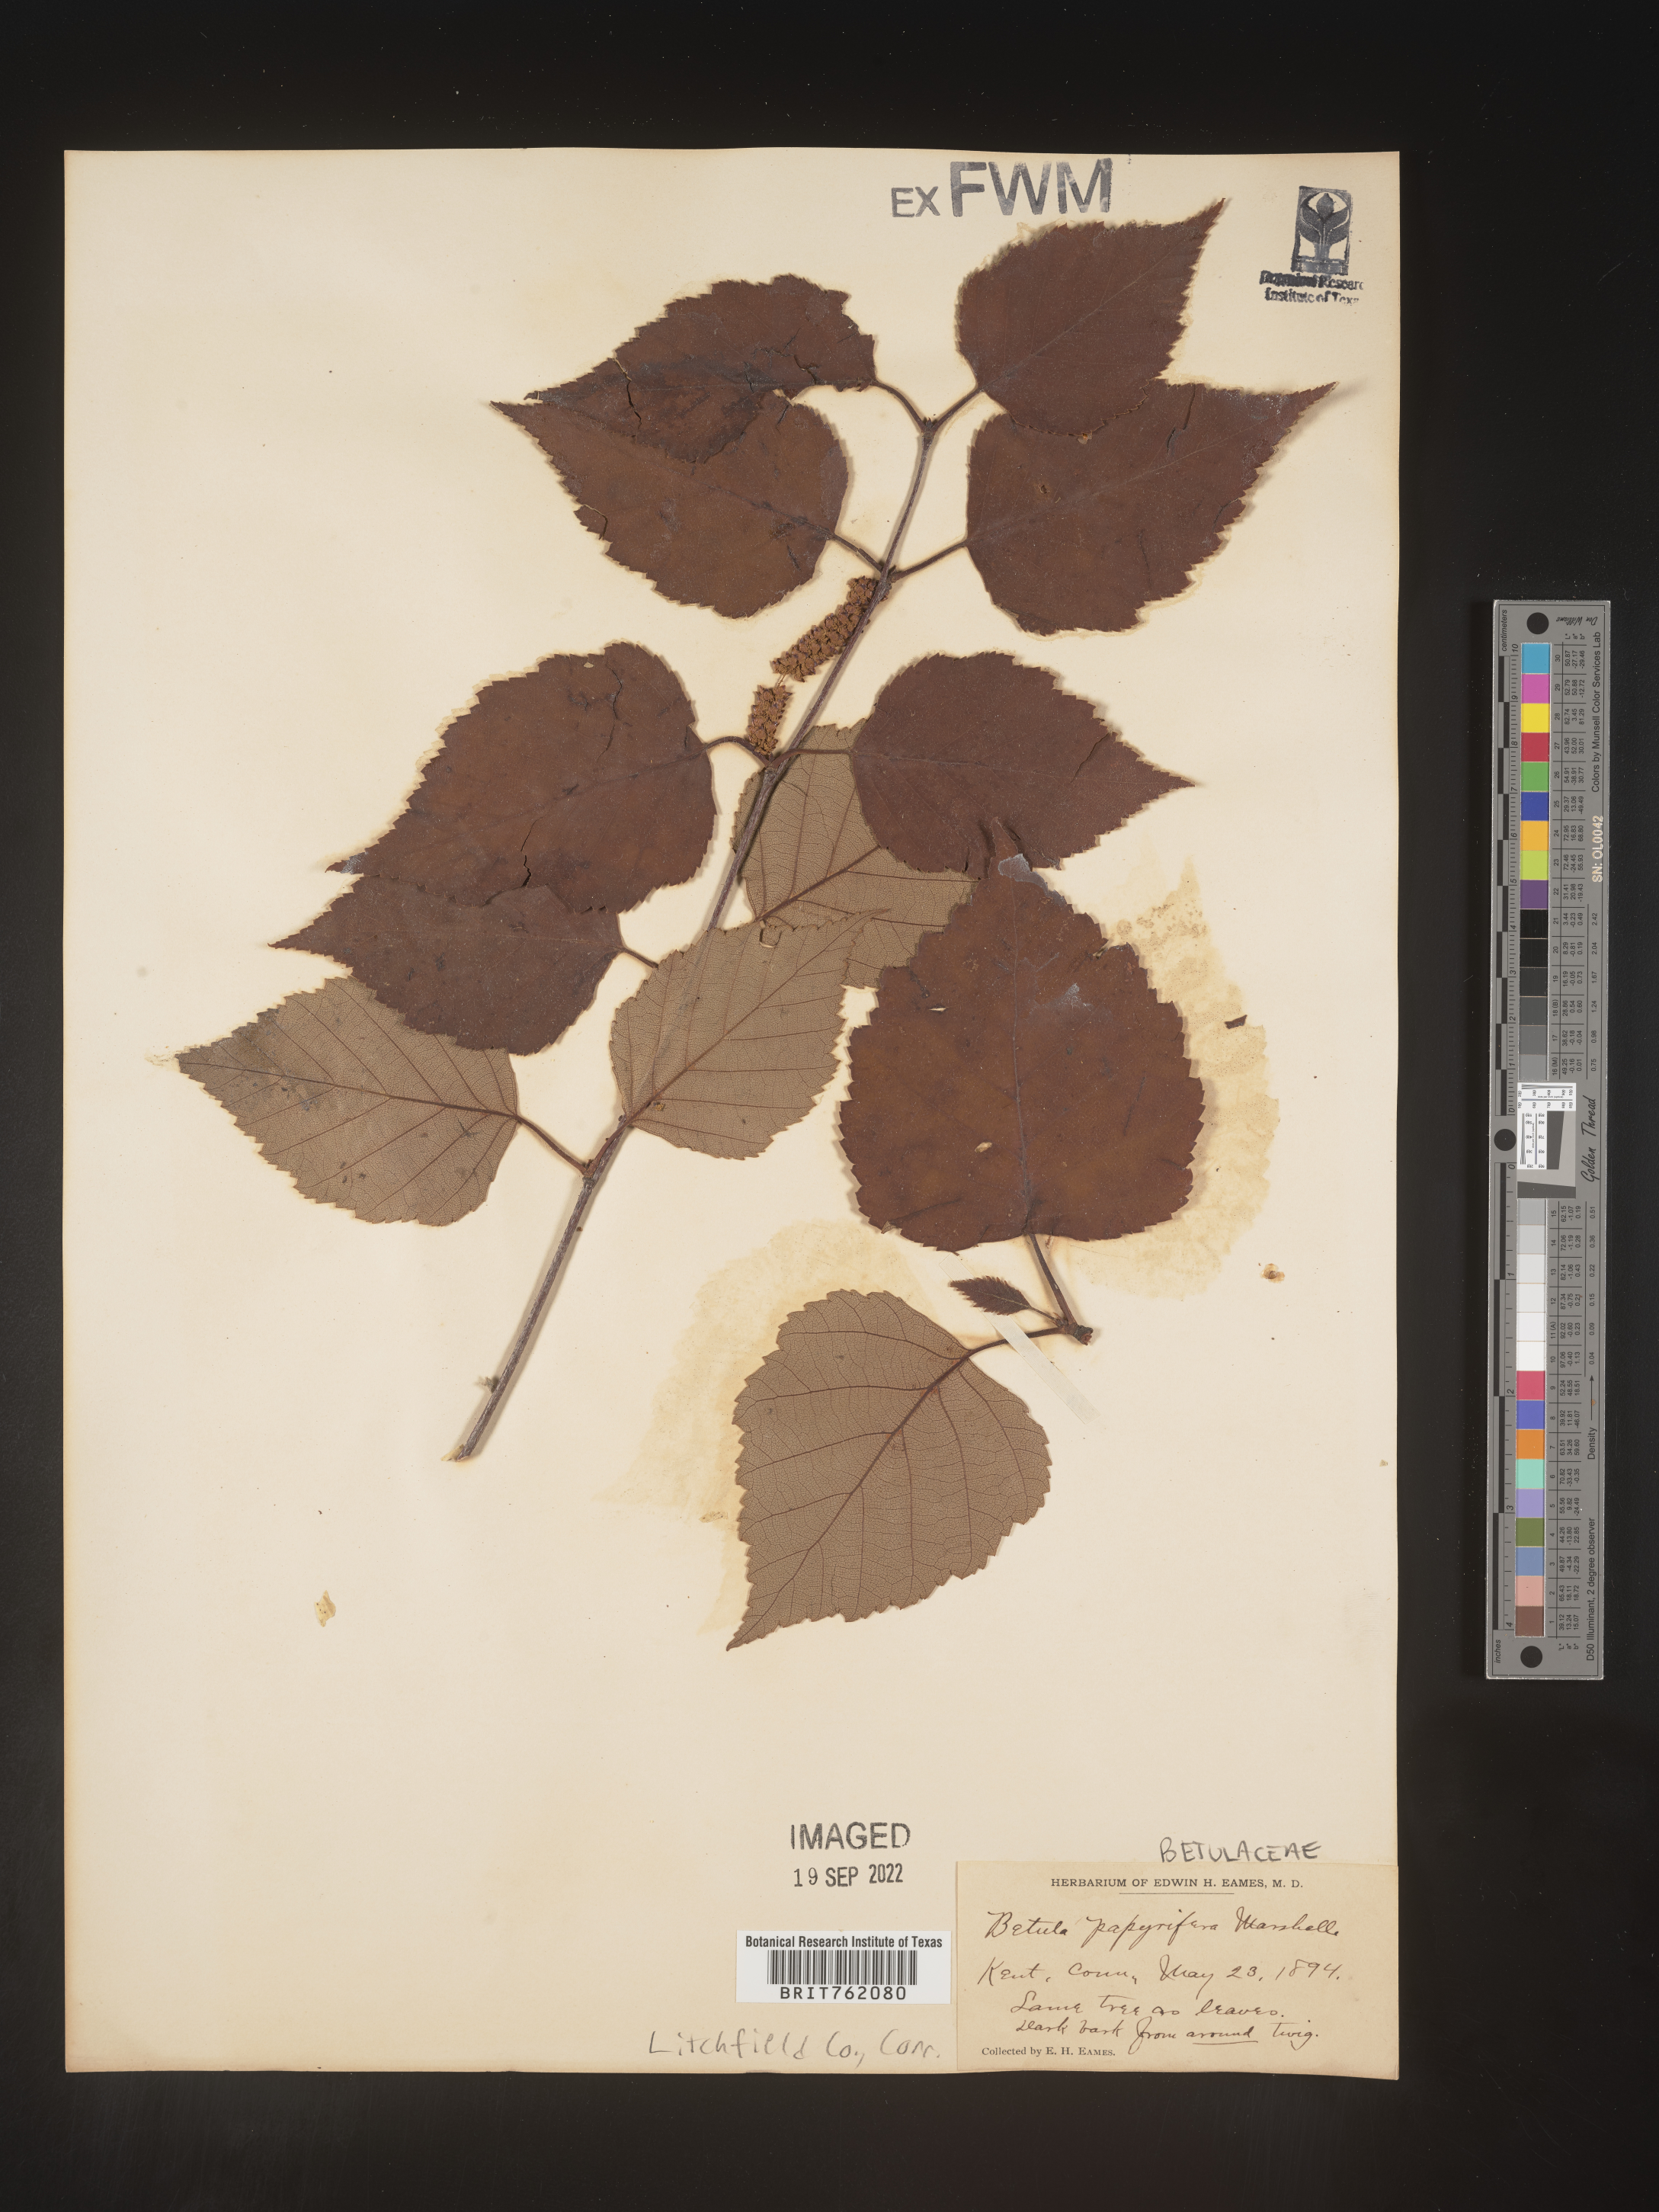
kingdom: Plantae
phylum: Tracheophyta
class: Magnoliopsida
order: Fagales
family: Betulaceae
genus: Betula
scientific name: Betula papyrifera
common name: Paper birch
